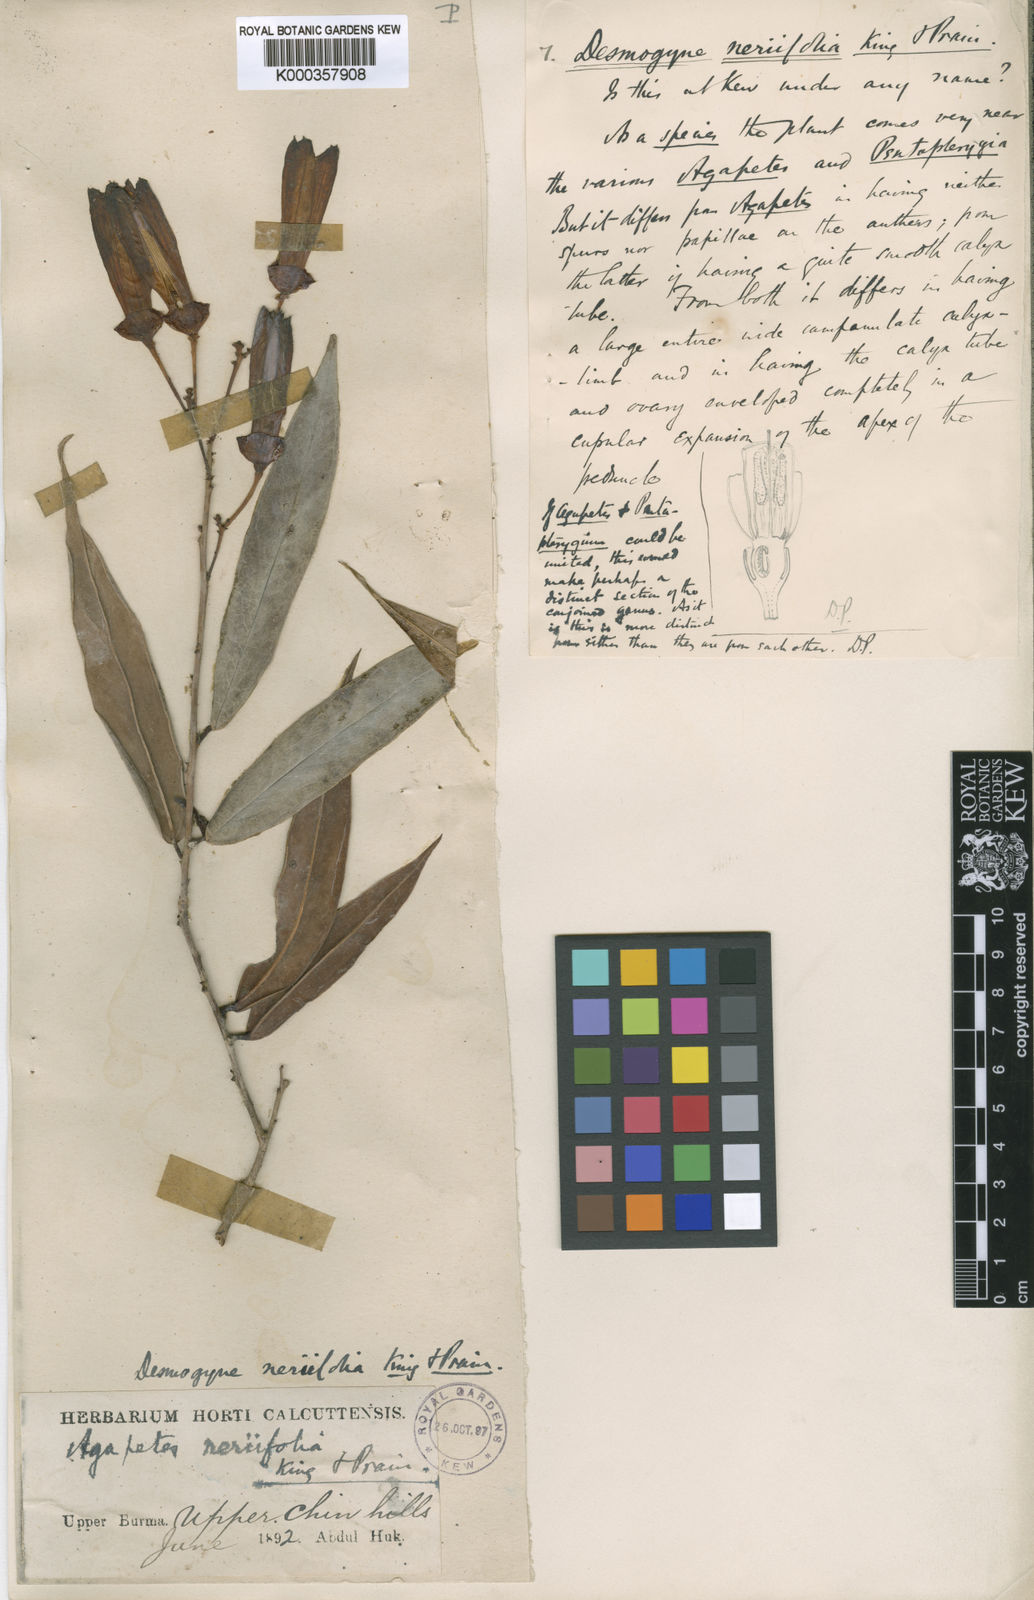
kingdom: Plantae
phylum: Tracheophyta
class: Magnoliopsida
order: Ericales
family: Ericaceae
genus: Agapetes
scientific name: Agapetes neriifolia
